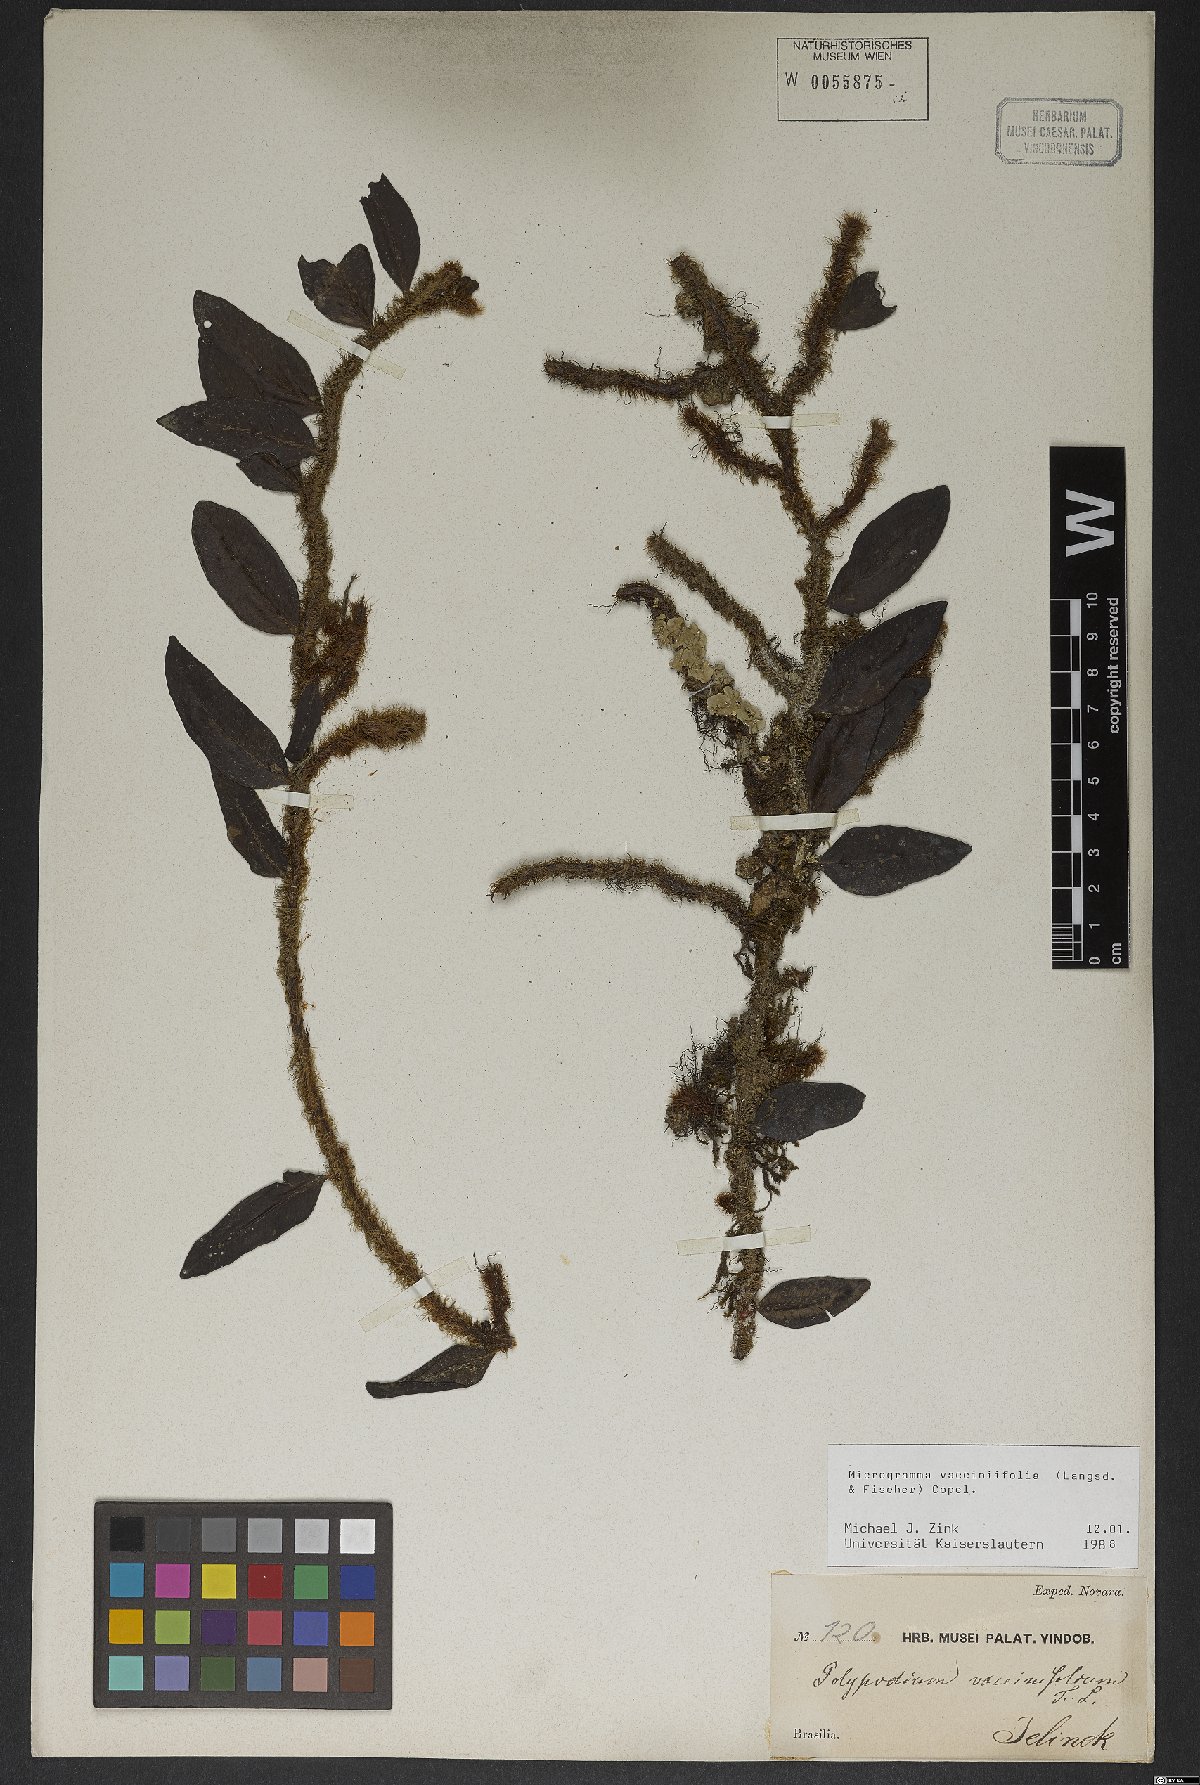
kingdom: Plantae
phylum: Tracheophyta
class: Polypodiopsida
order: Polypodiales
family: Polypodiaceae
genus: Microgramma
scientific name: Microgramma vaccinifolia
